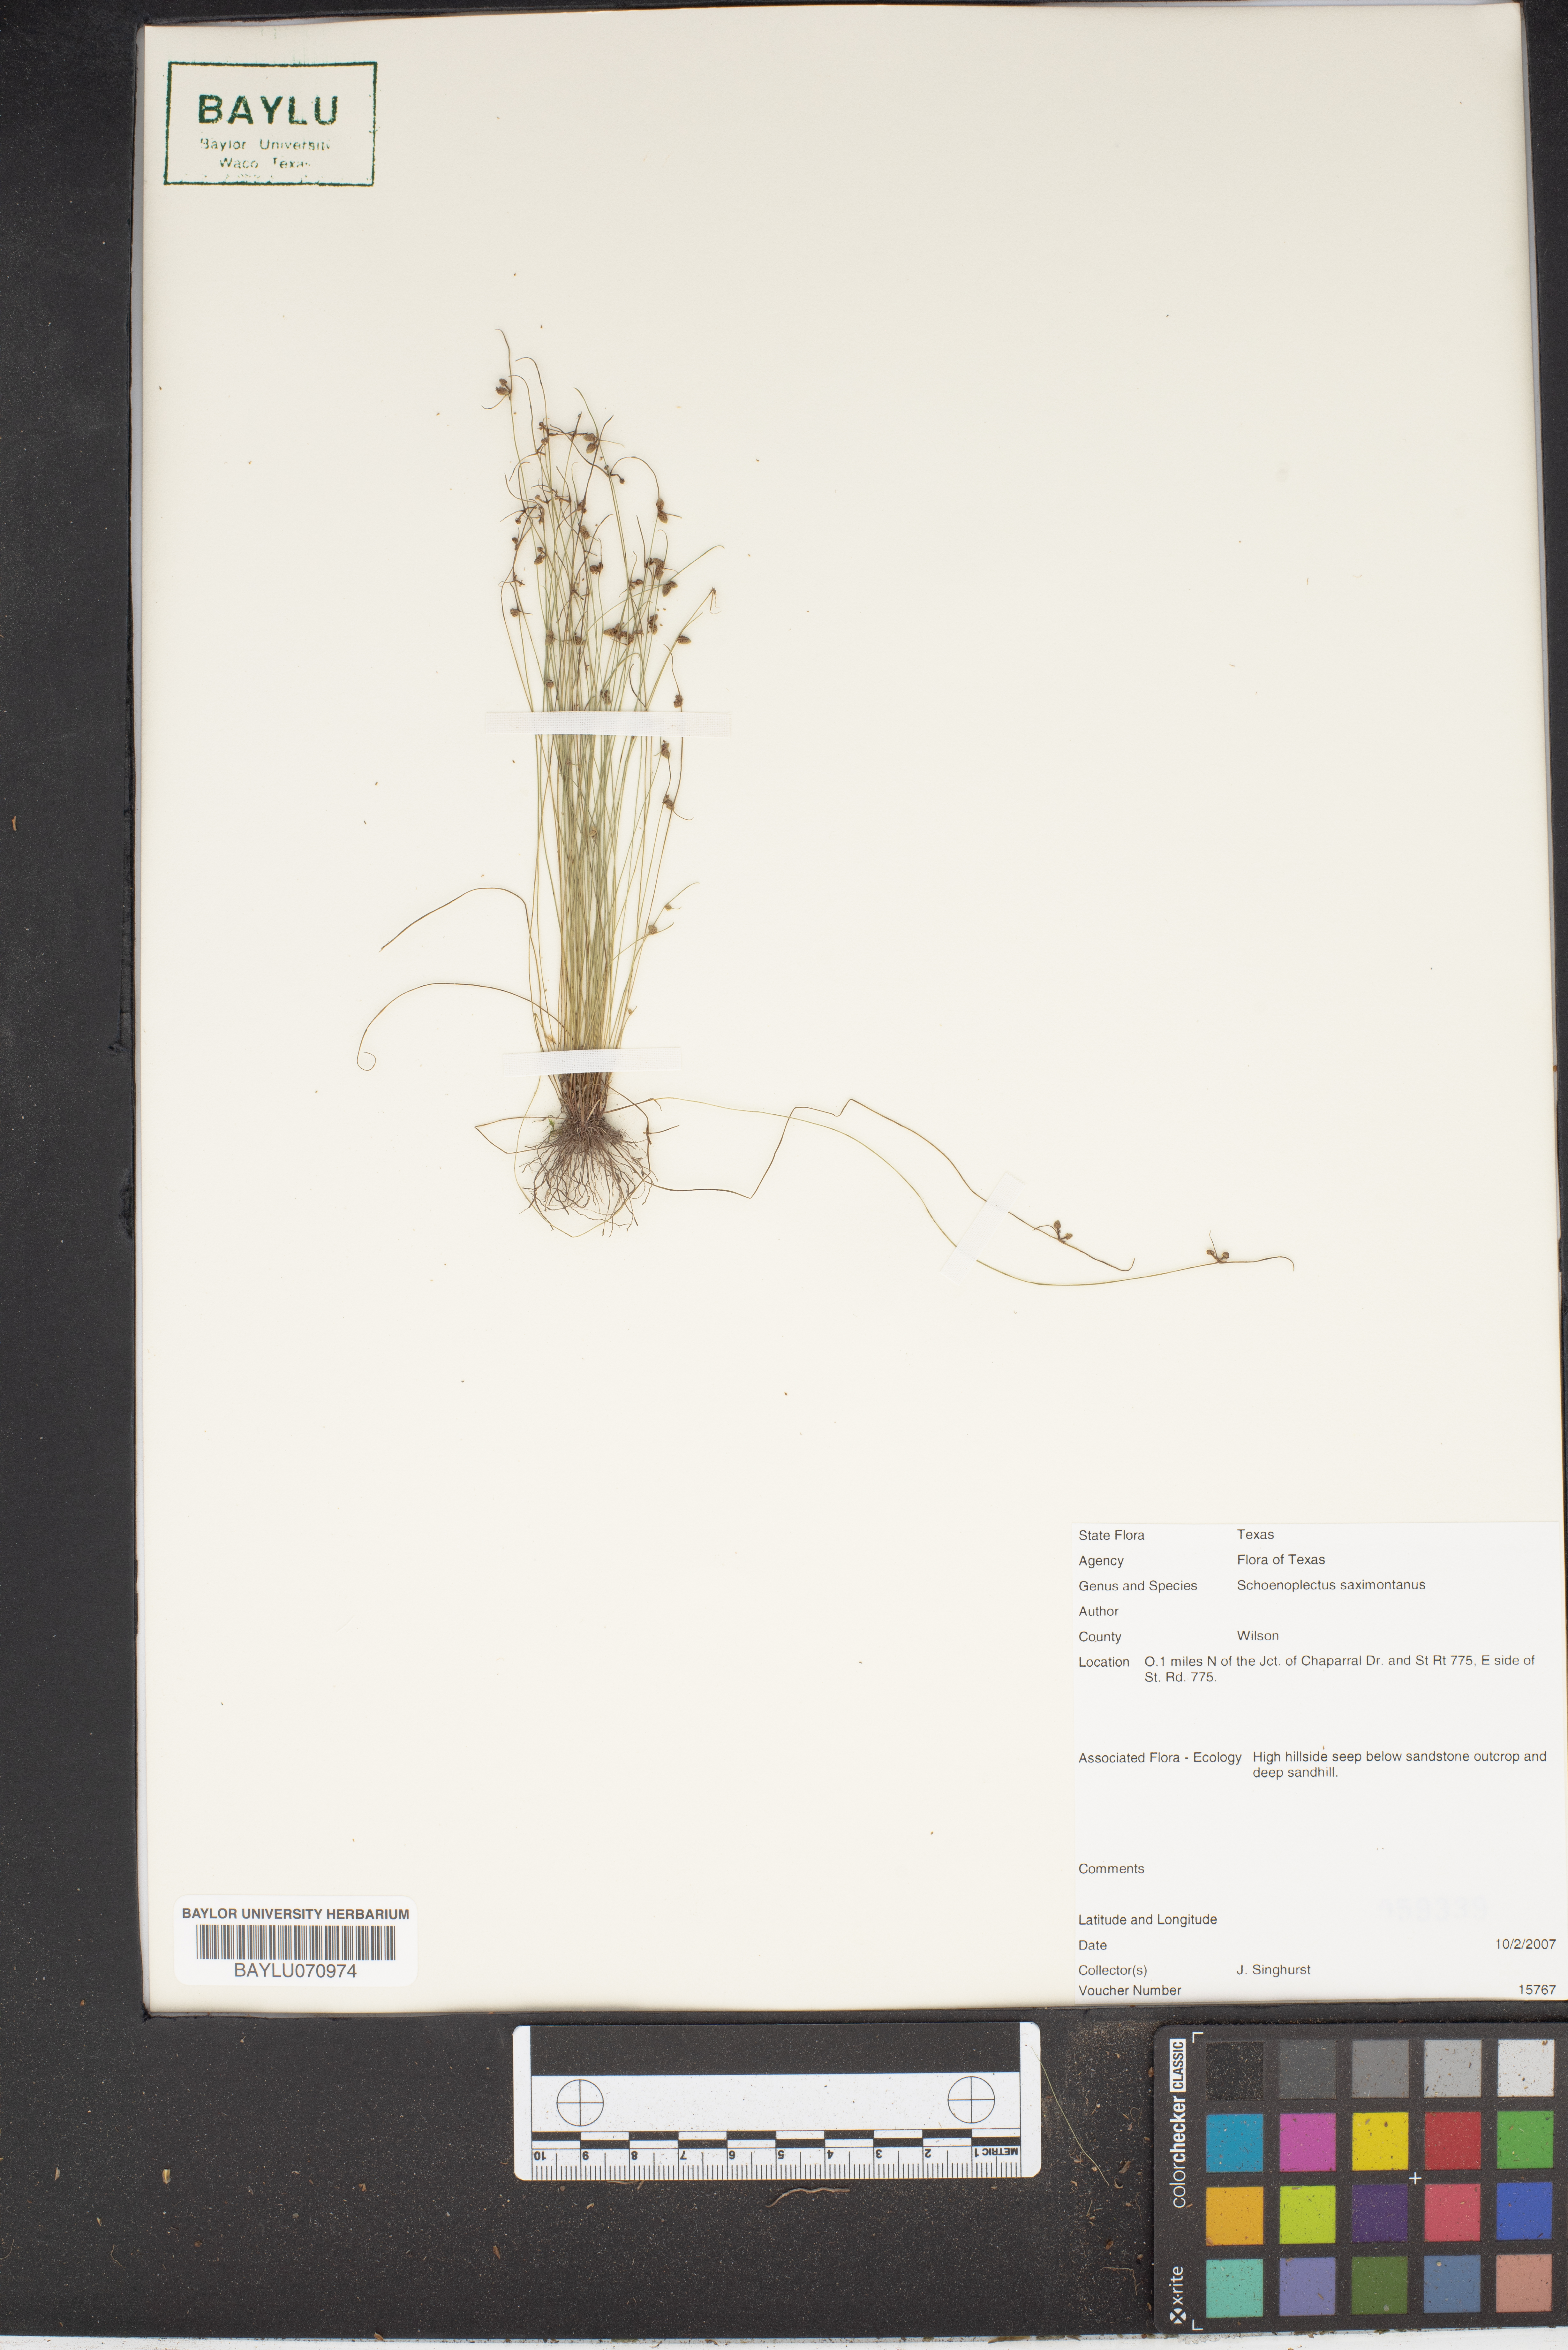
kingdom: Plantae
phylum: Tracheophyta
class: Liliopsida
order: Poales
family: Cyperaceae
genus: Schoenoplectiella
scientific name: Schoenoplectiella saximontana
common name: Rocky mountain clubrush
